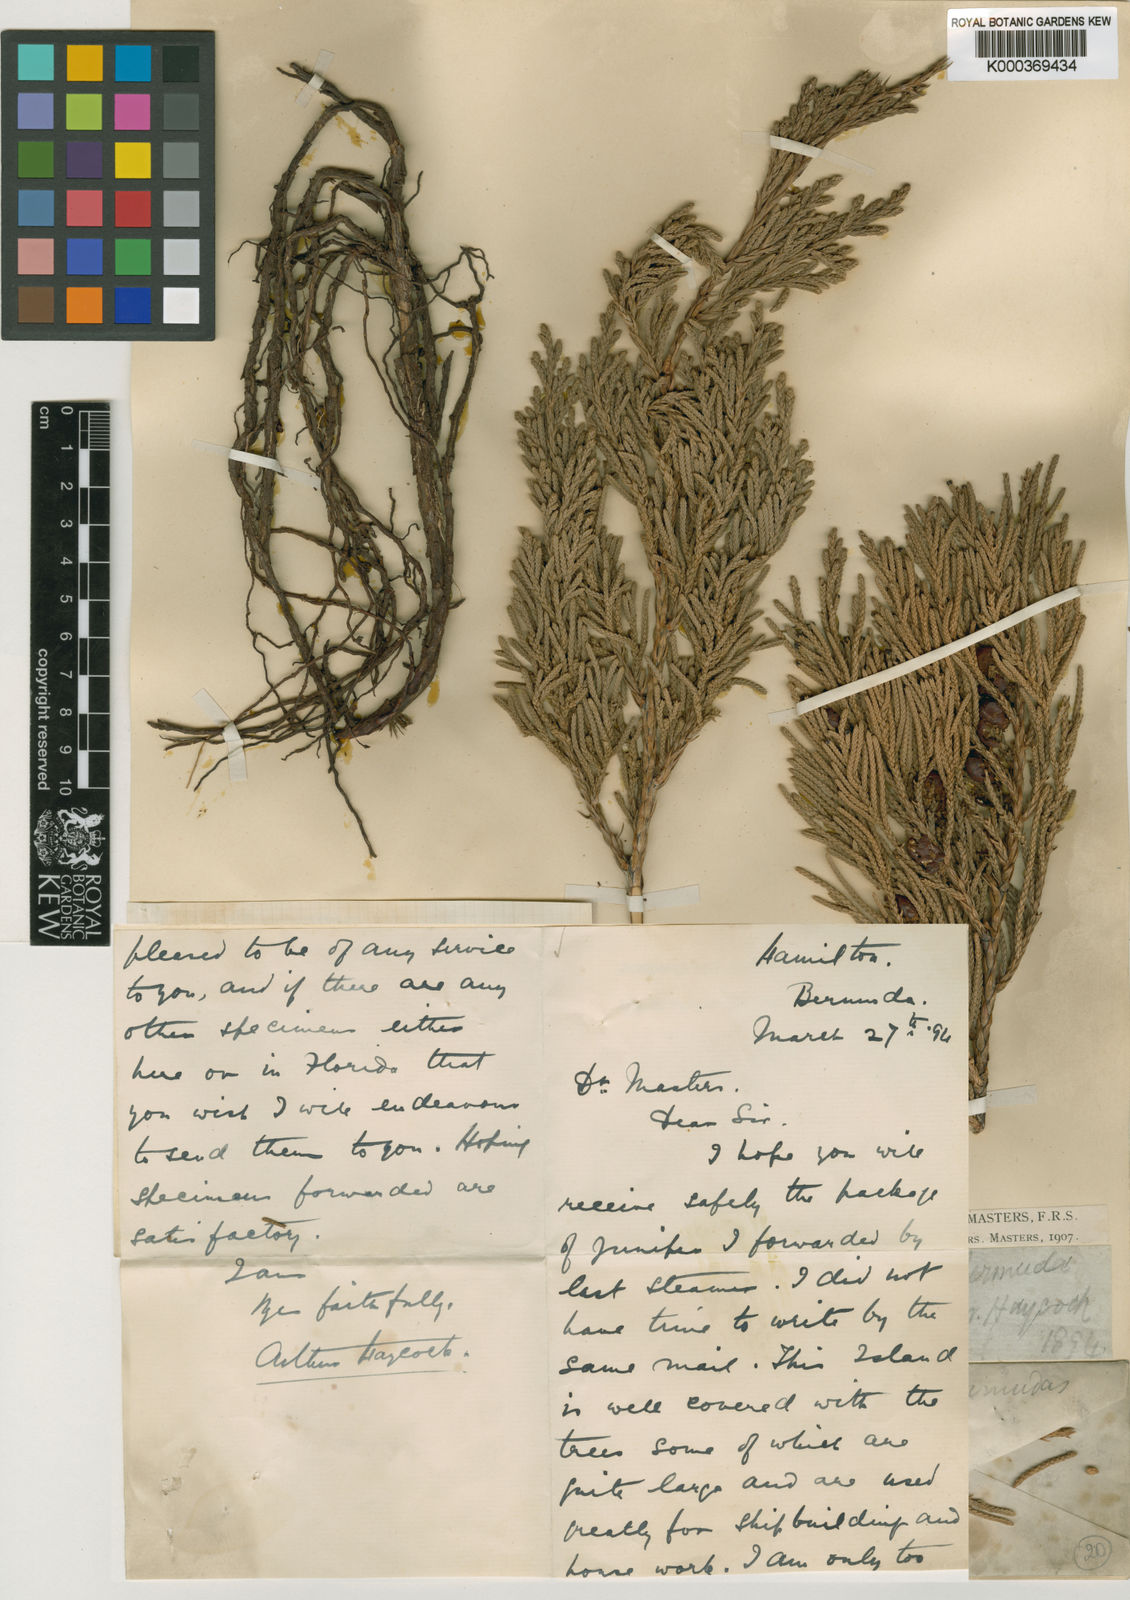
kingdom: Plantae
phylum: Tracheophyta
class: Pinopsida
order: Pinales
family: Cupressaceae
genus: Juniperus
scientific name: Juniperus bermudiana
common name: Bermuda juniper
